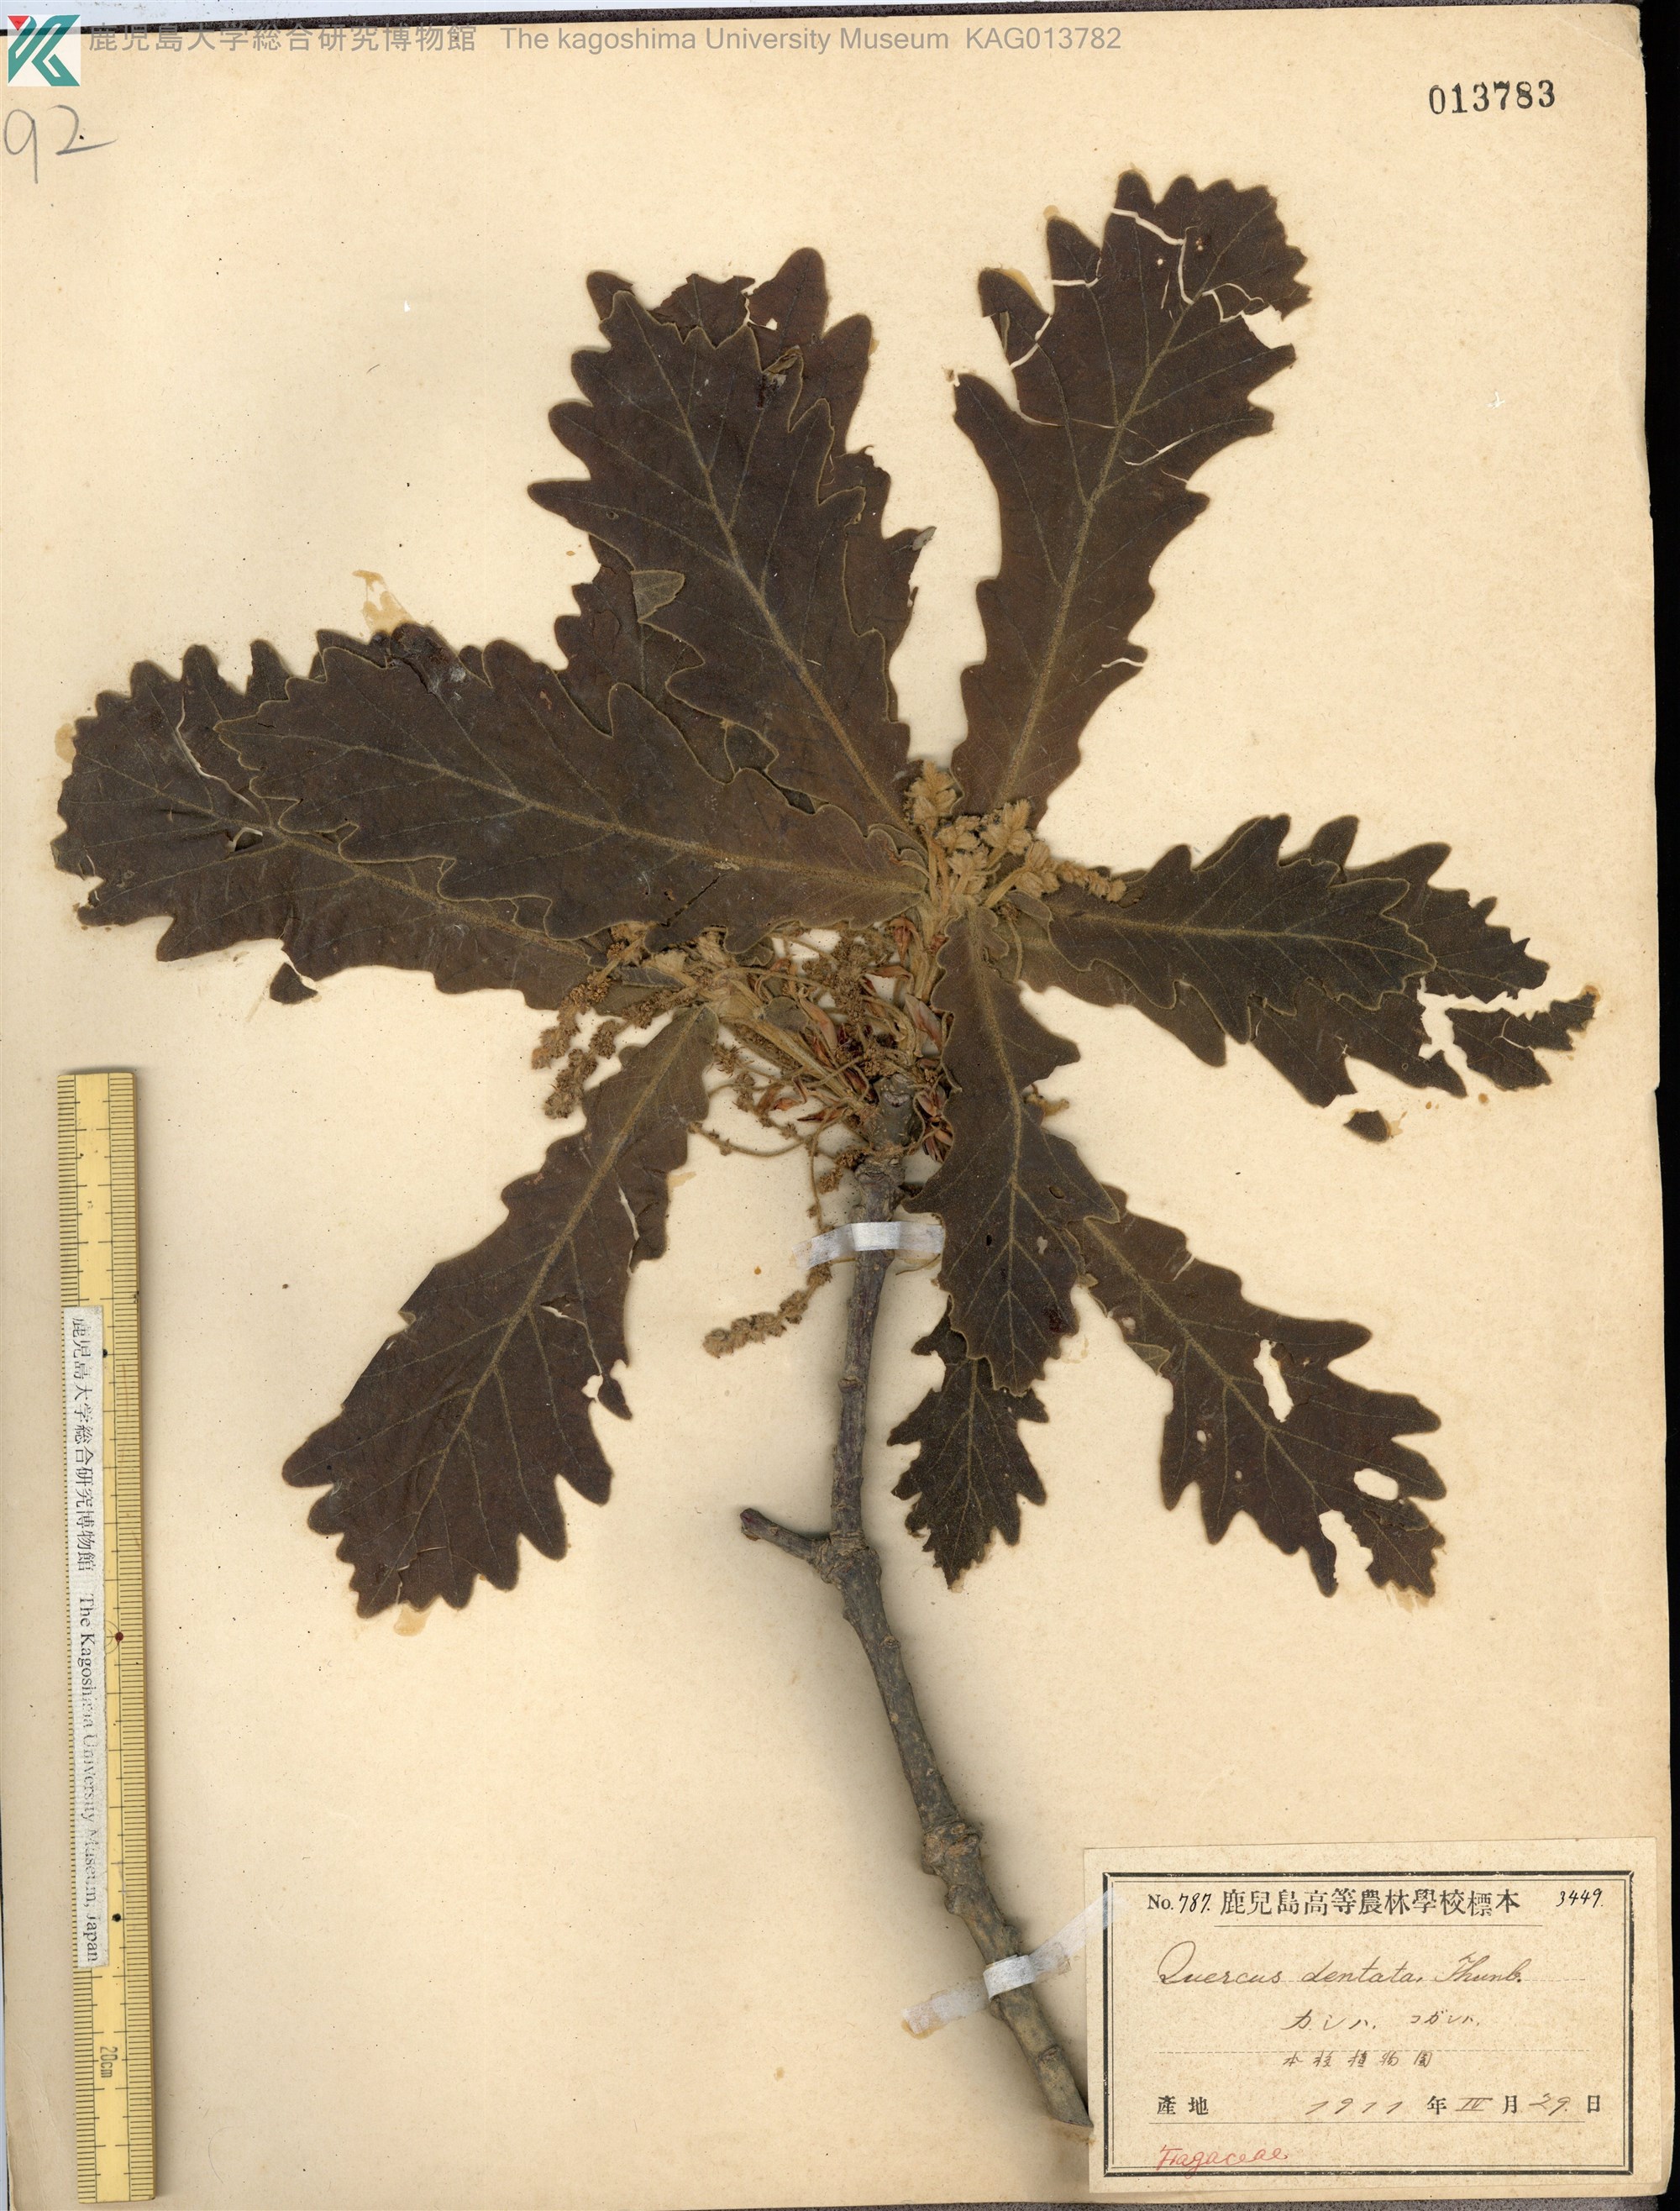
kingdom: Plantae
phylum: Tracheophyta
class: Magnoliopsida
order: Fagales
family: Fagaceae
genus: Quercus
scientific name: Quercus coccinea
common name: Scarlet oak
